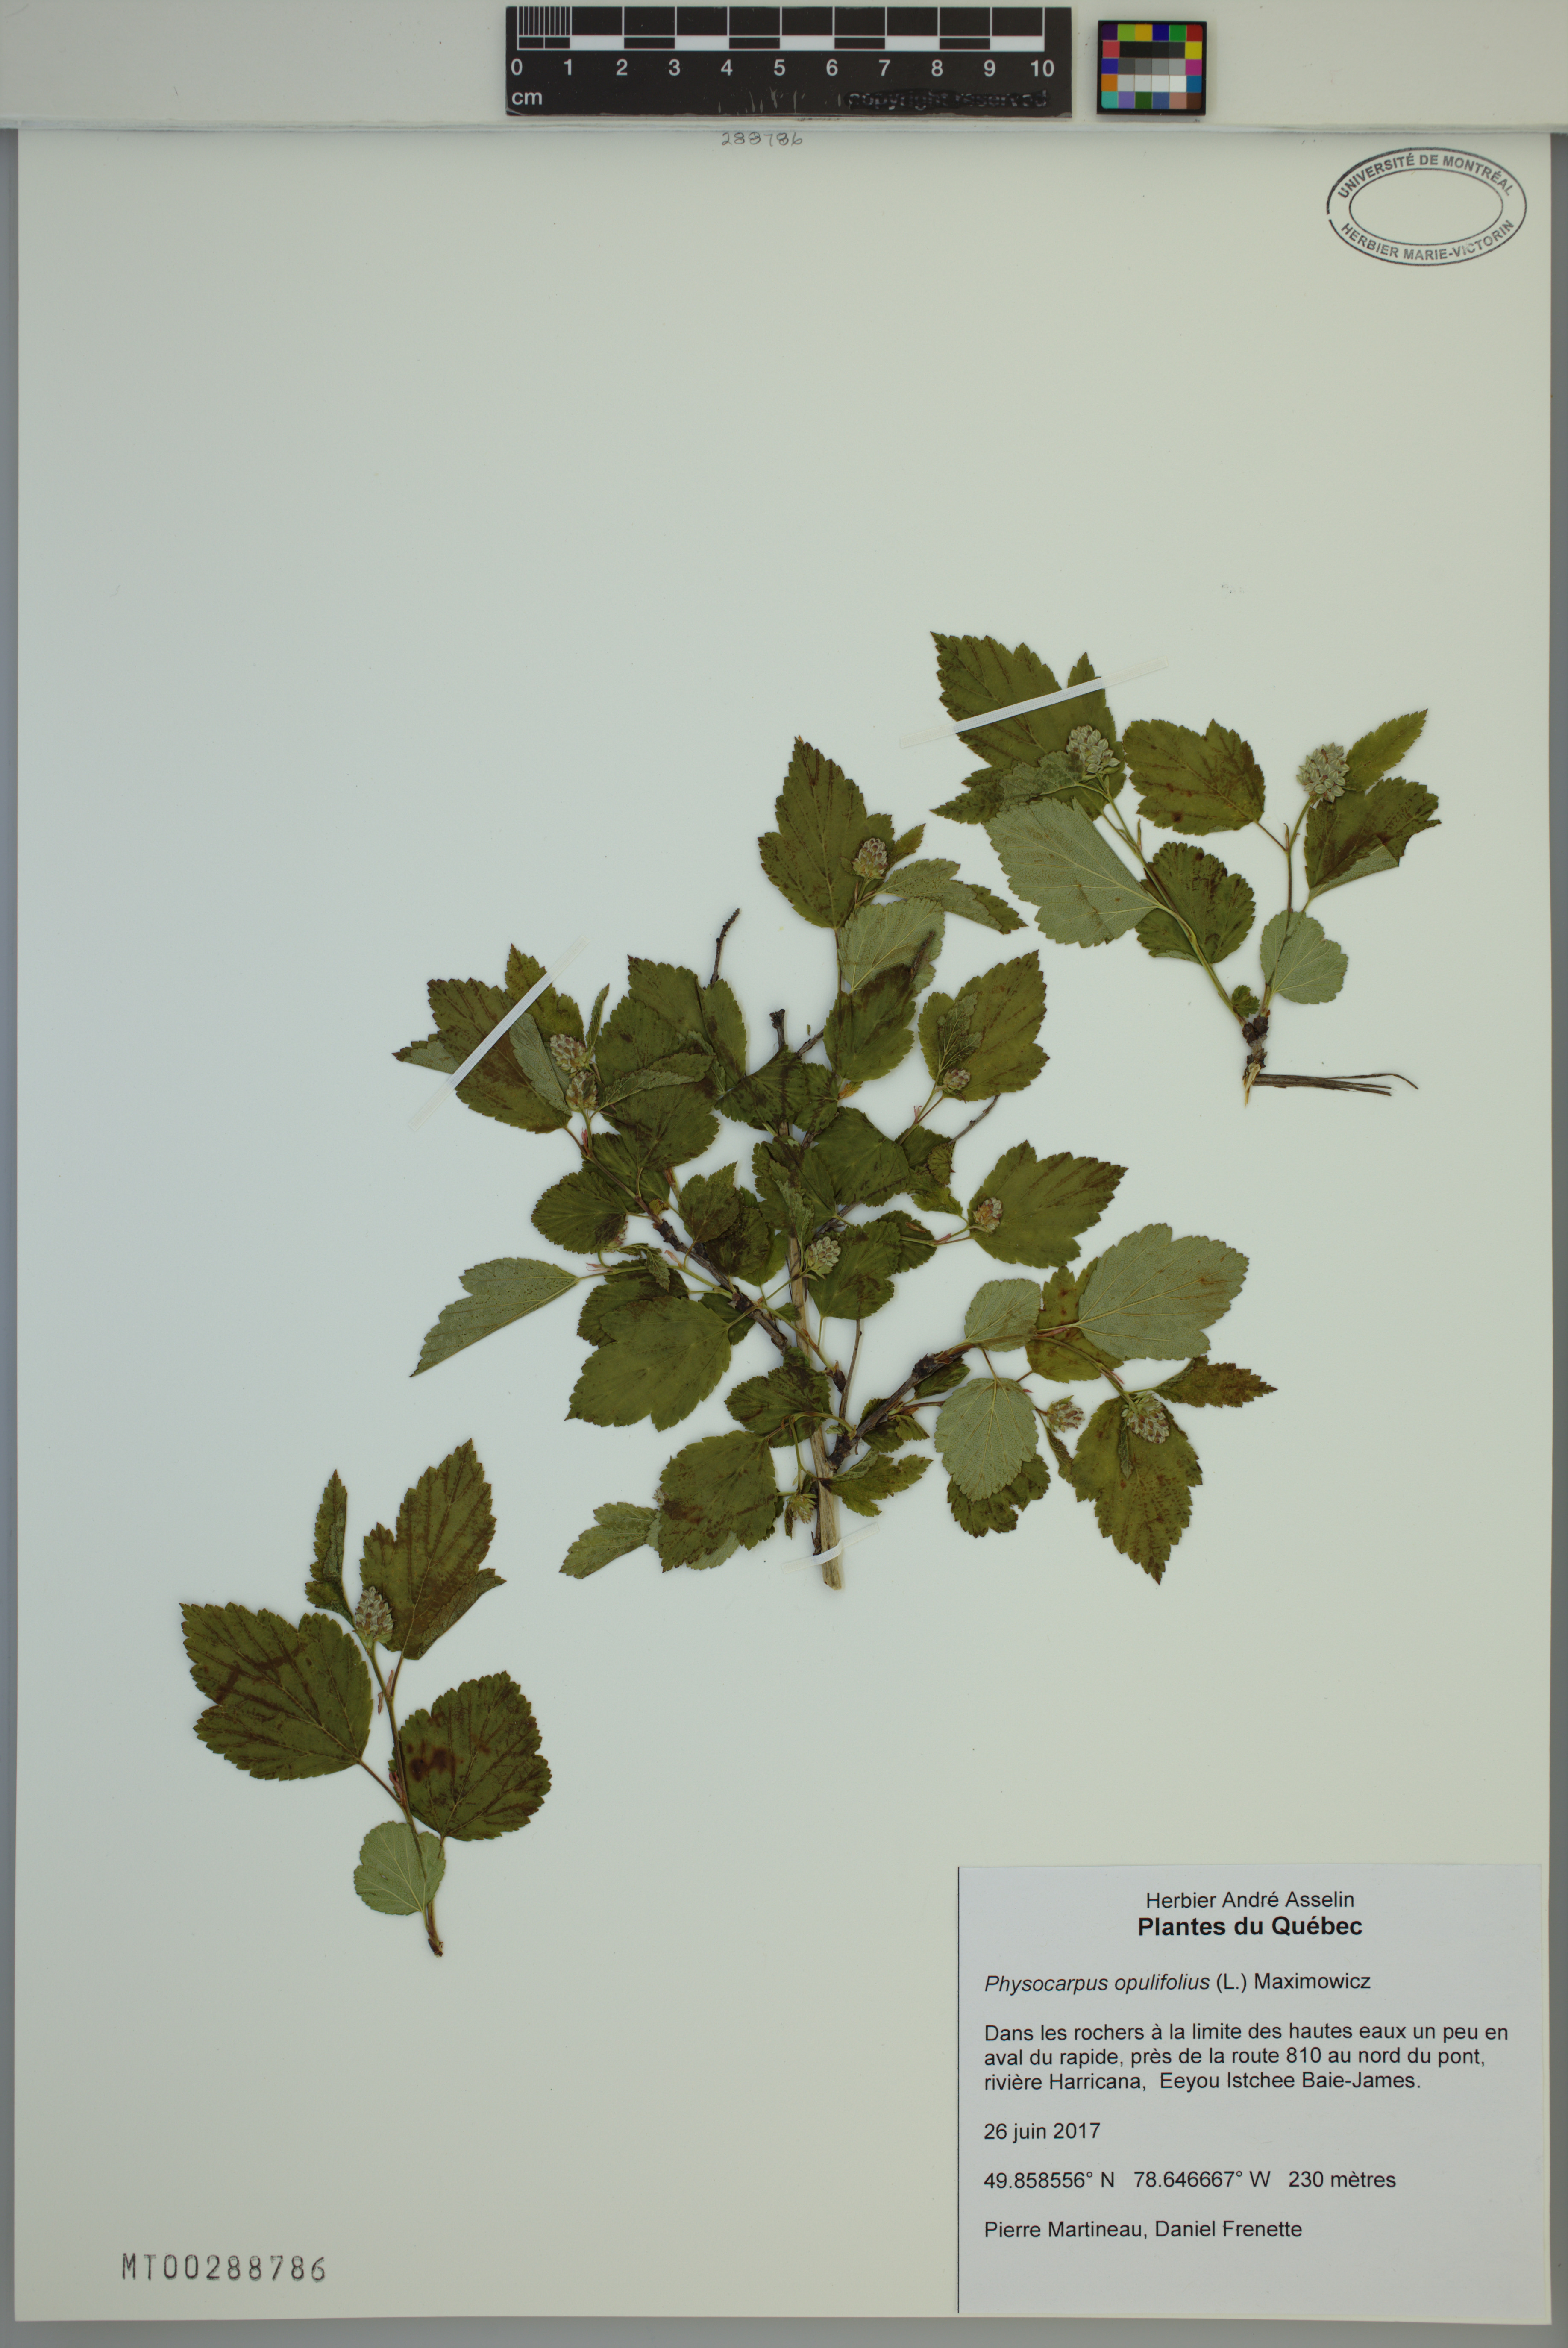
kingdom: Plantae
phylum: Tracheophyta
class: Magnoliopsida
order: Rosales
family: Rosaceae
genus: Physocarpus
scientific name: Physocarpus opulifolius
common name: Ninebark
